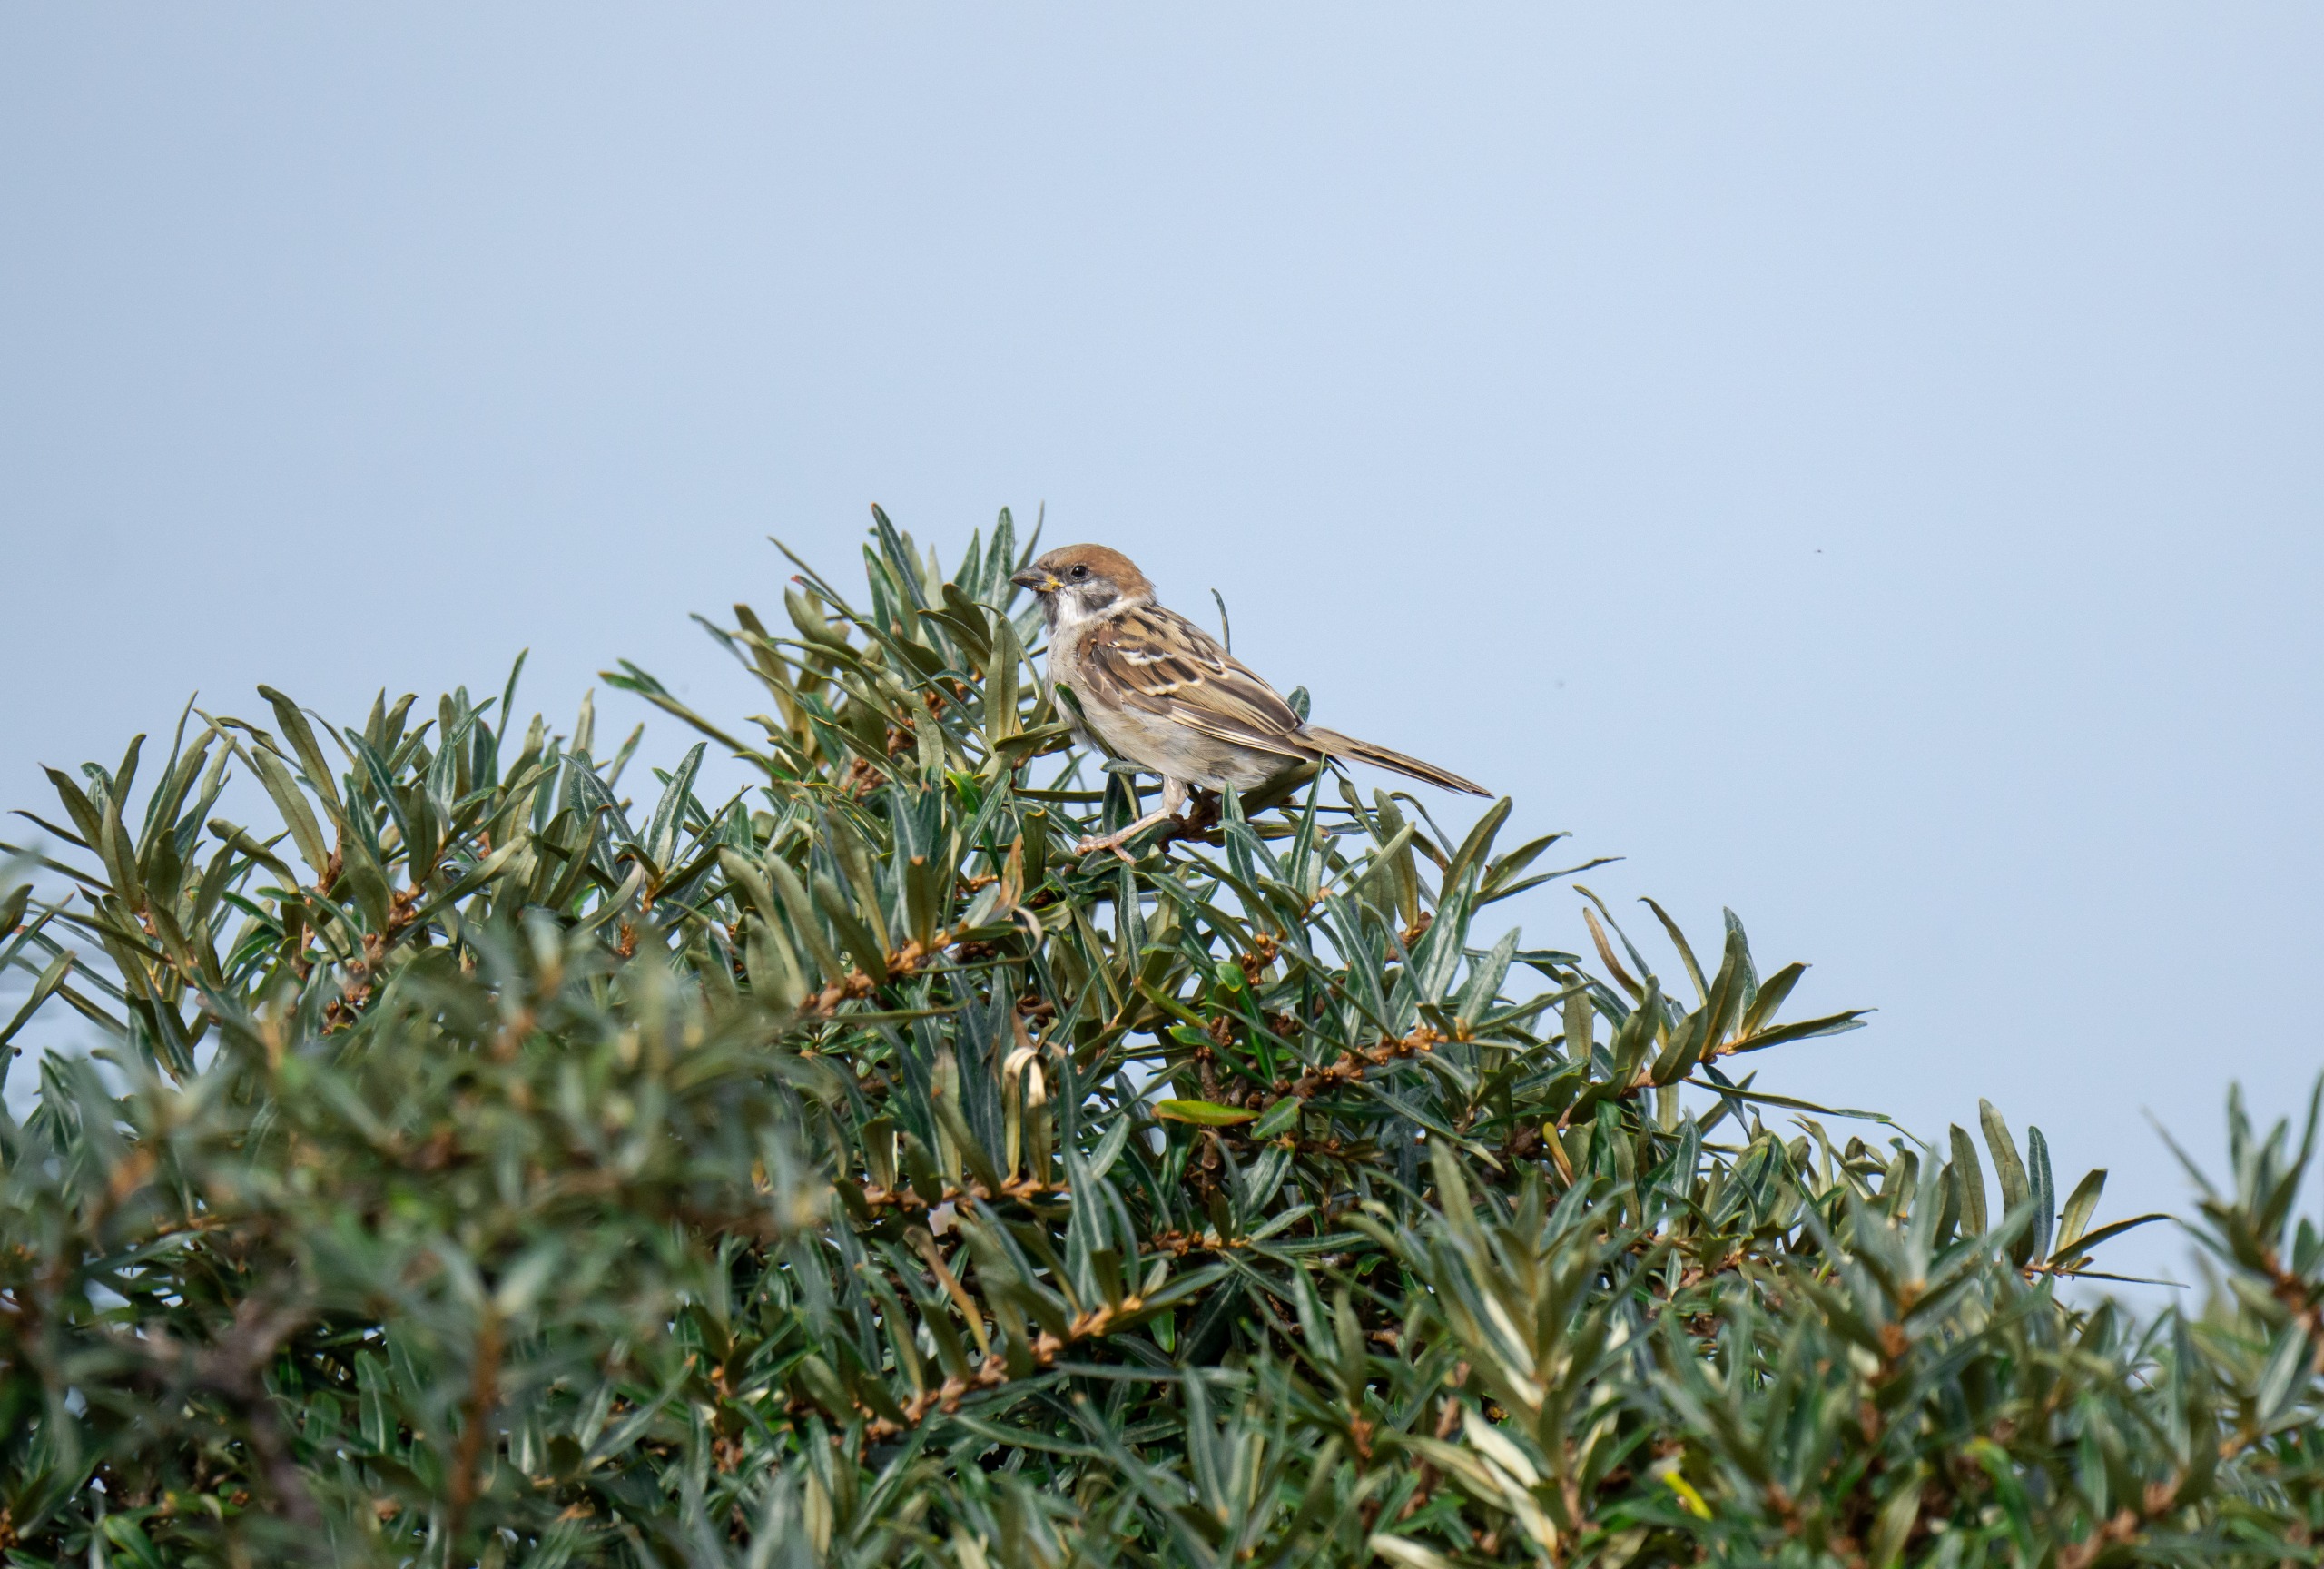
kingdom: Animalia
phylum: Chordata
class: Aves
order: Passeriformes
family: Passeridae
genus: Passer
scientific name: Passer montanus
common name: Skovspurv
